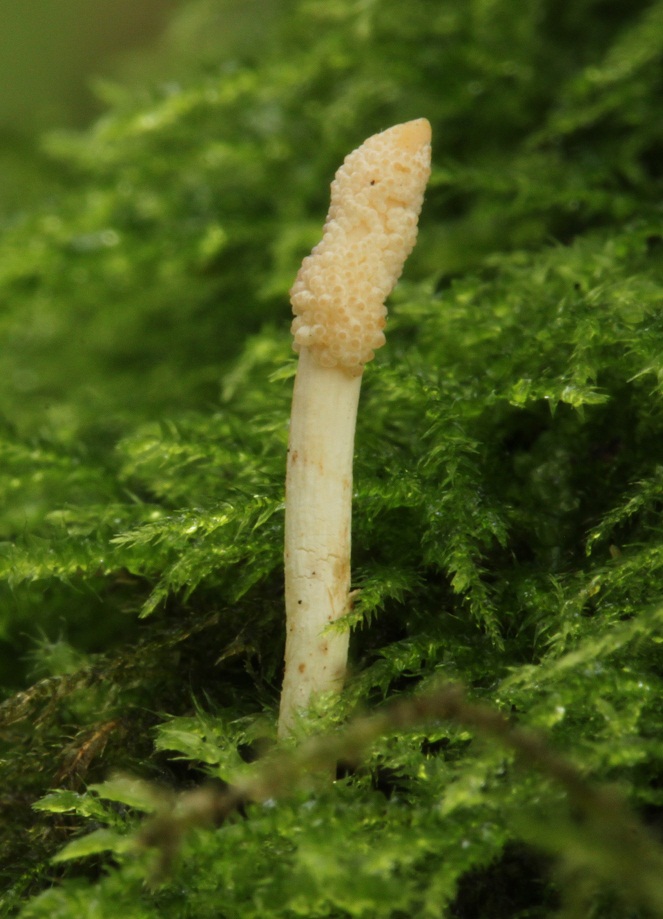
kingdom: Fungi
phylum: Ascomycota
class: Sordariomycetes
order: Hypocreales
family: Cordycipitaceae
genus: Cordyceps
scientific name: Cordyceps bifusispora
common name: bolasporet snyltekølle
